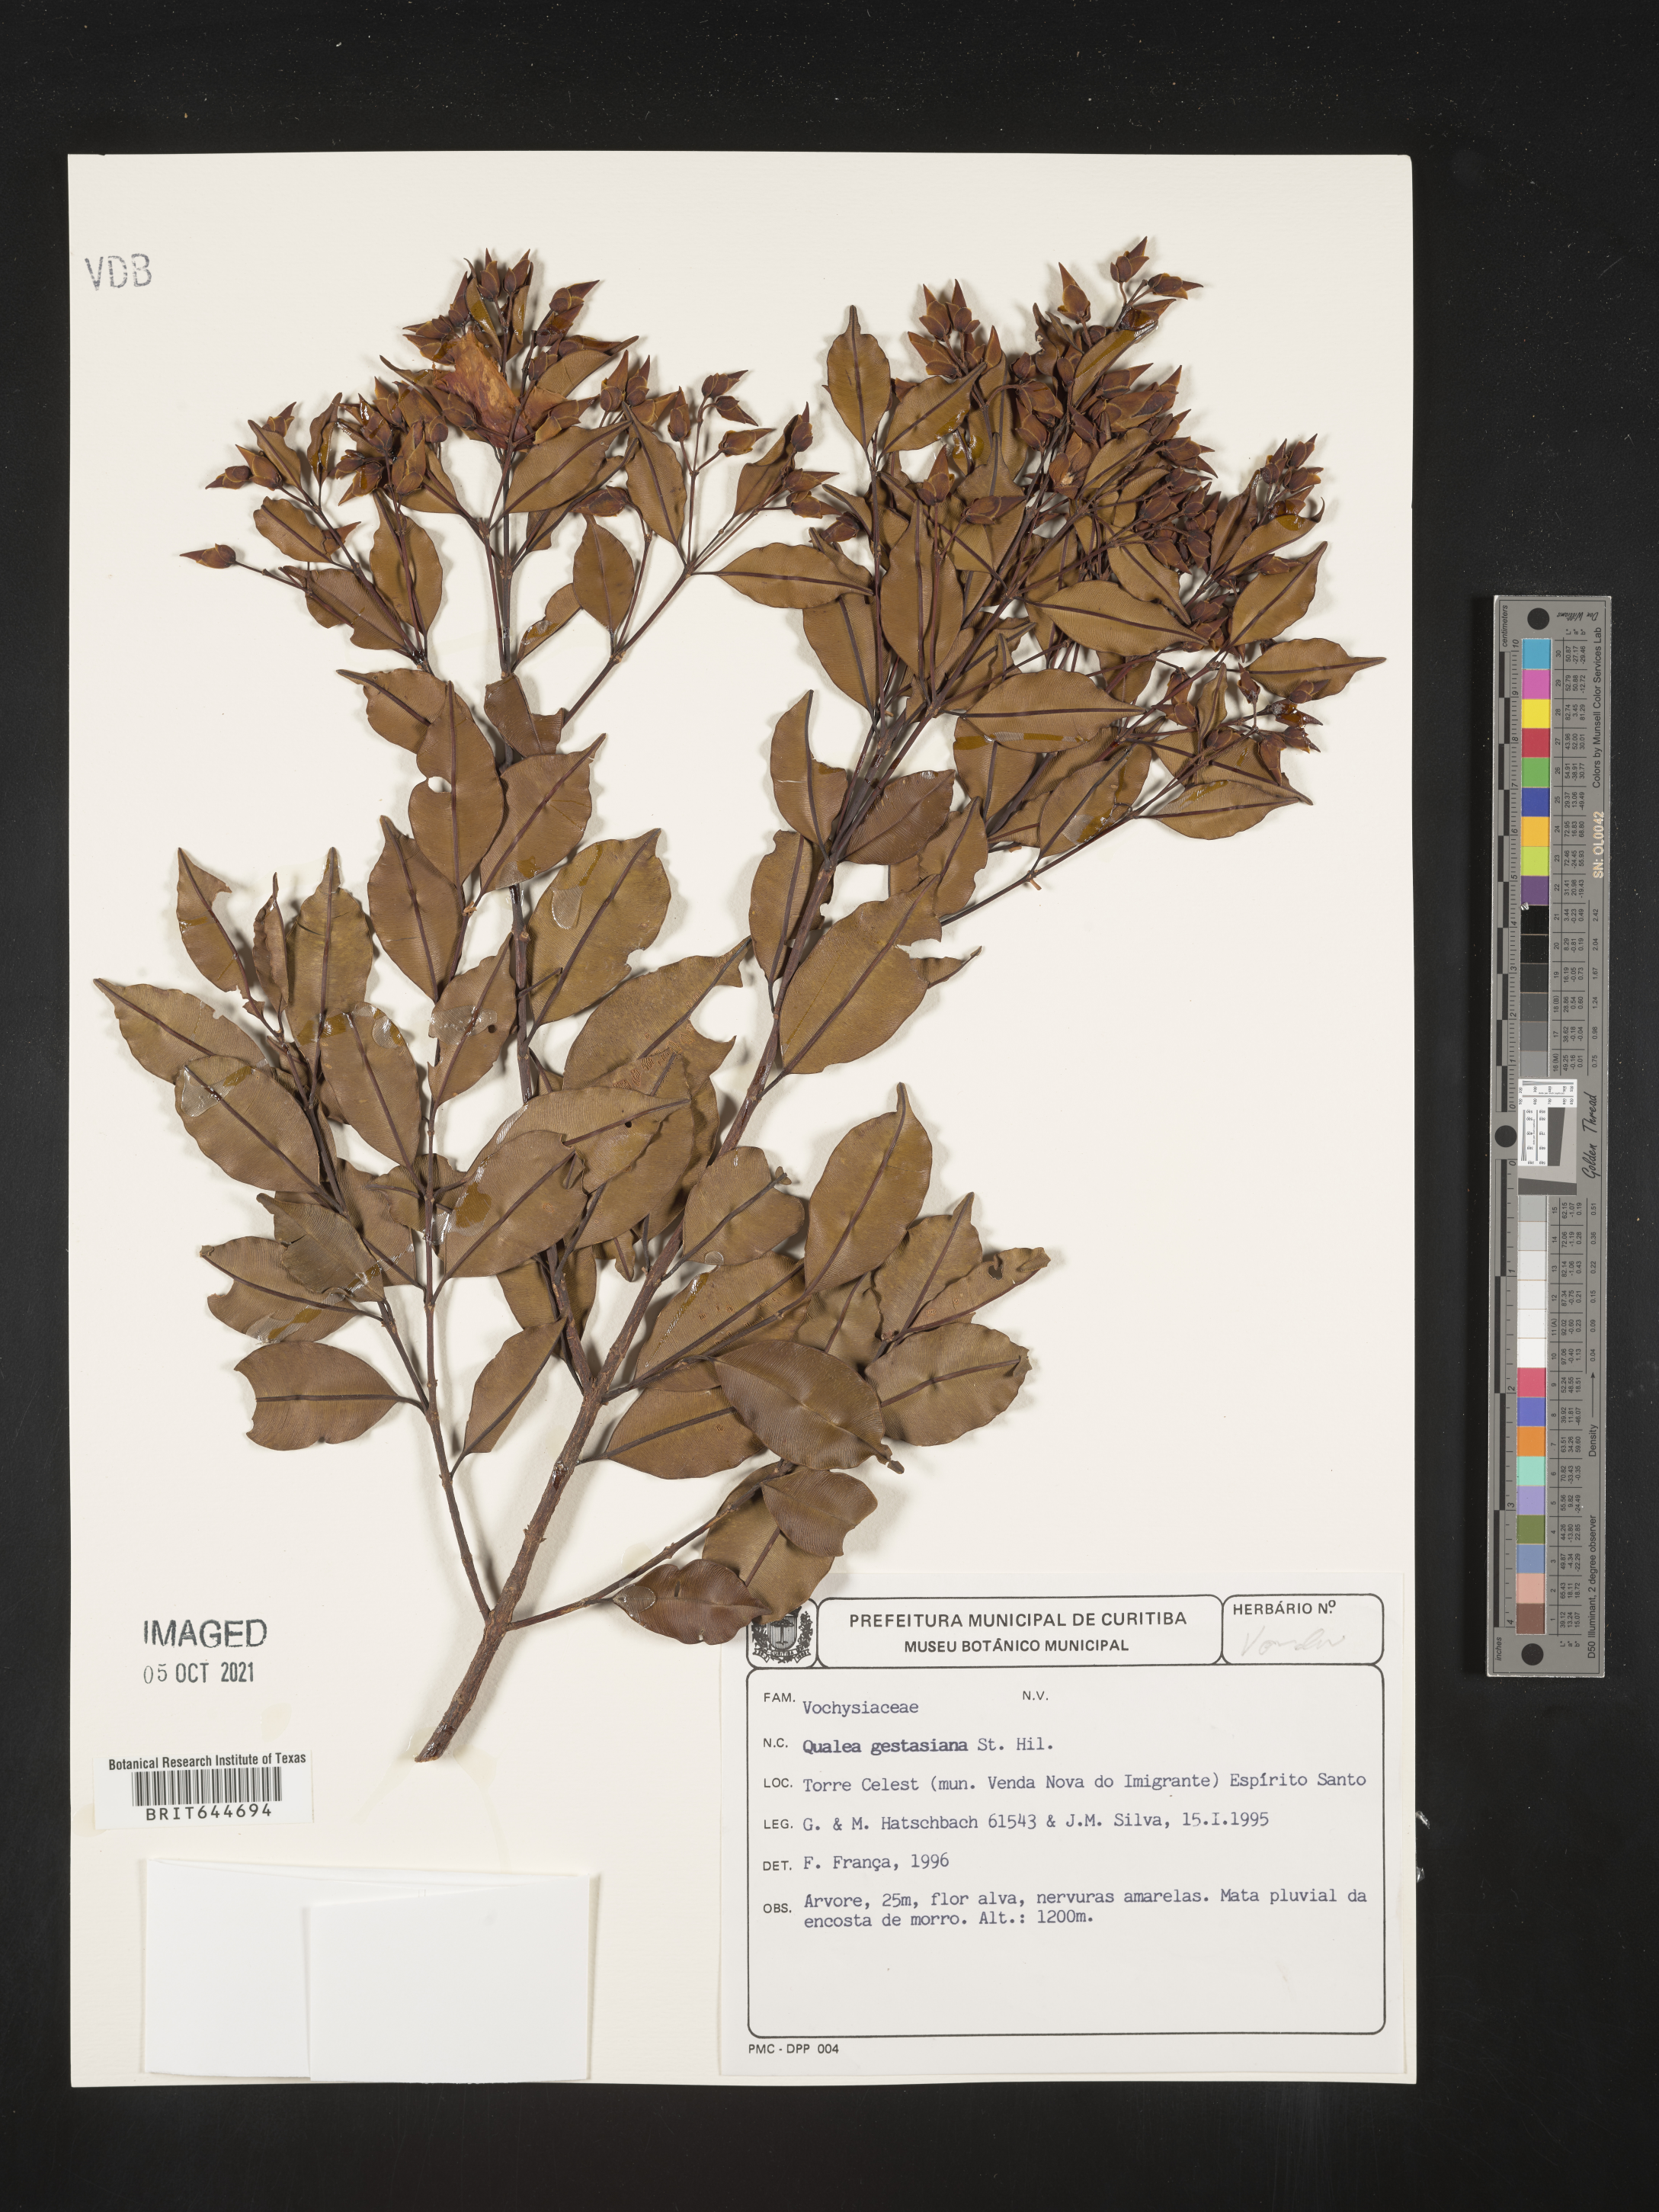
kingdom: Plantae
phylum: Tracheophyta
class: Magnoliopsida
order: Myrtales
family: Vochysiaceae
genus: Qualea
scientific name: Qualea
